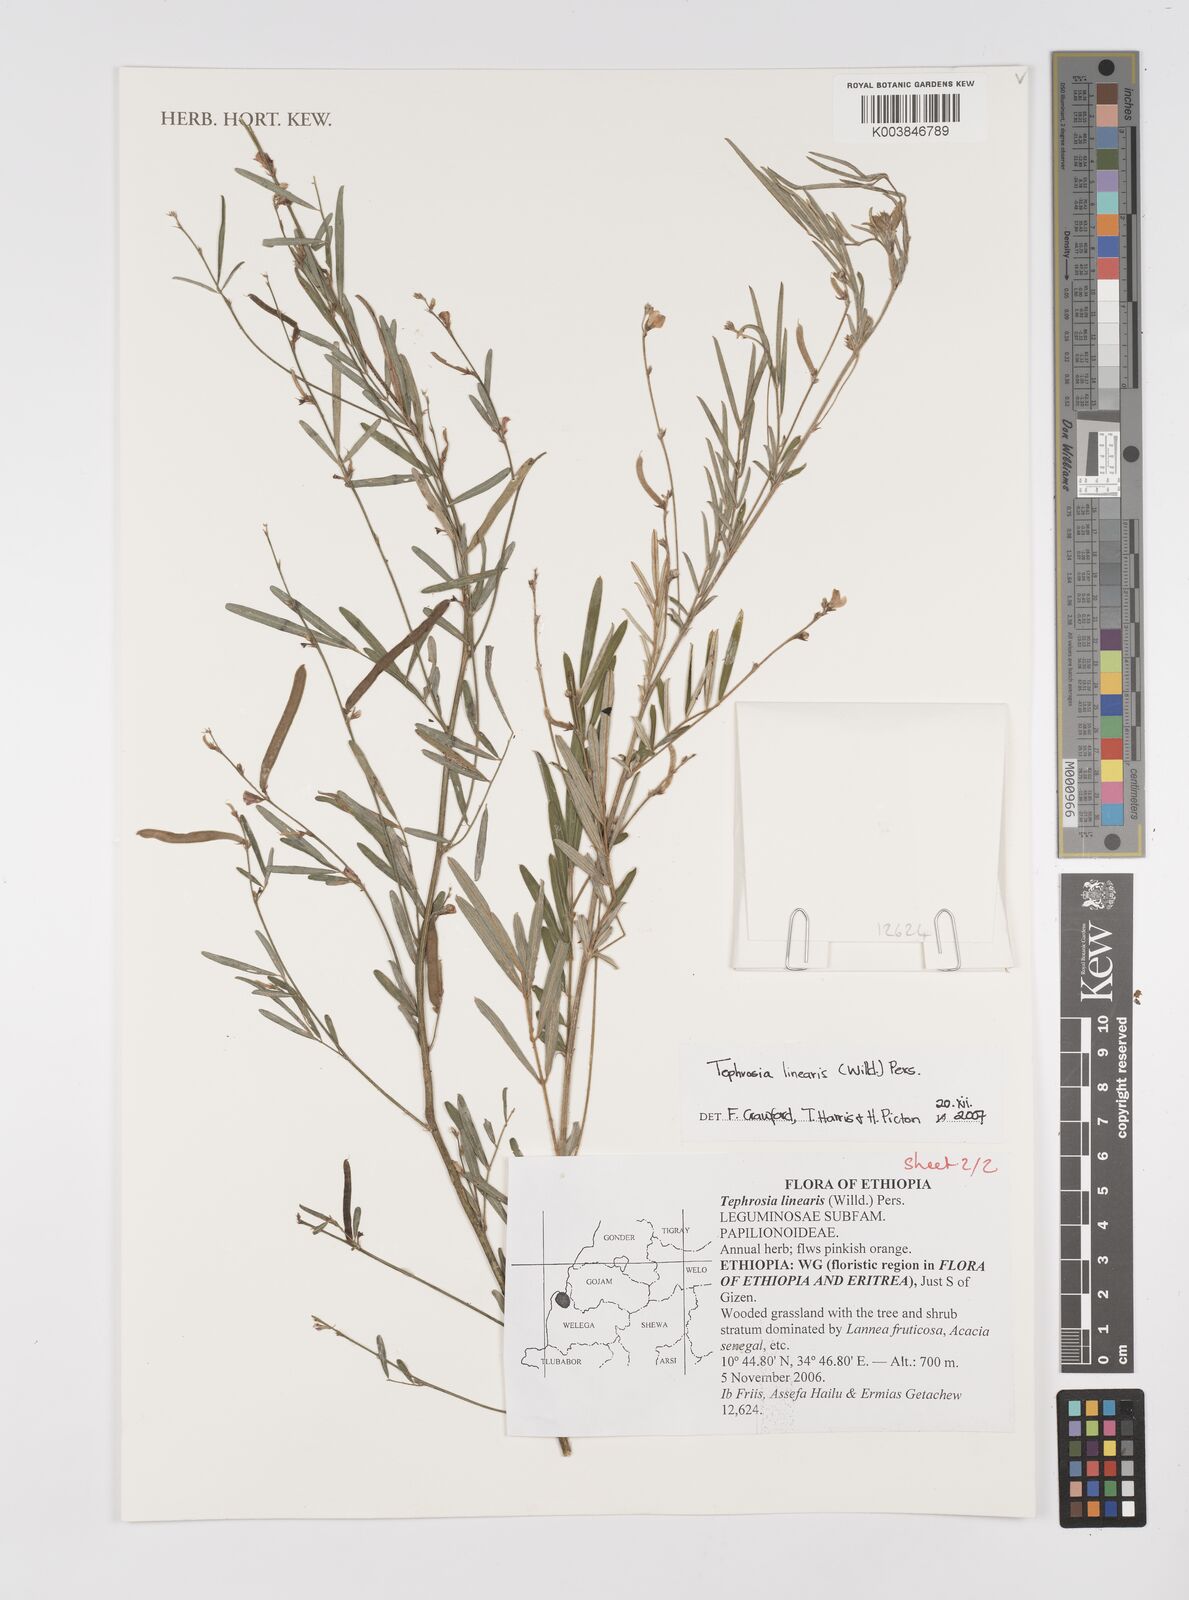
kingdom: Plantae
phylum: Tracheophyta
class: Magnoliopsida
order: Fabales
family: Fabaceae
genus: Tephrosia
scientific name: Tephrosia linearis
